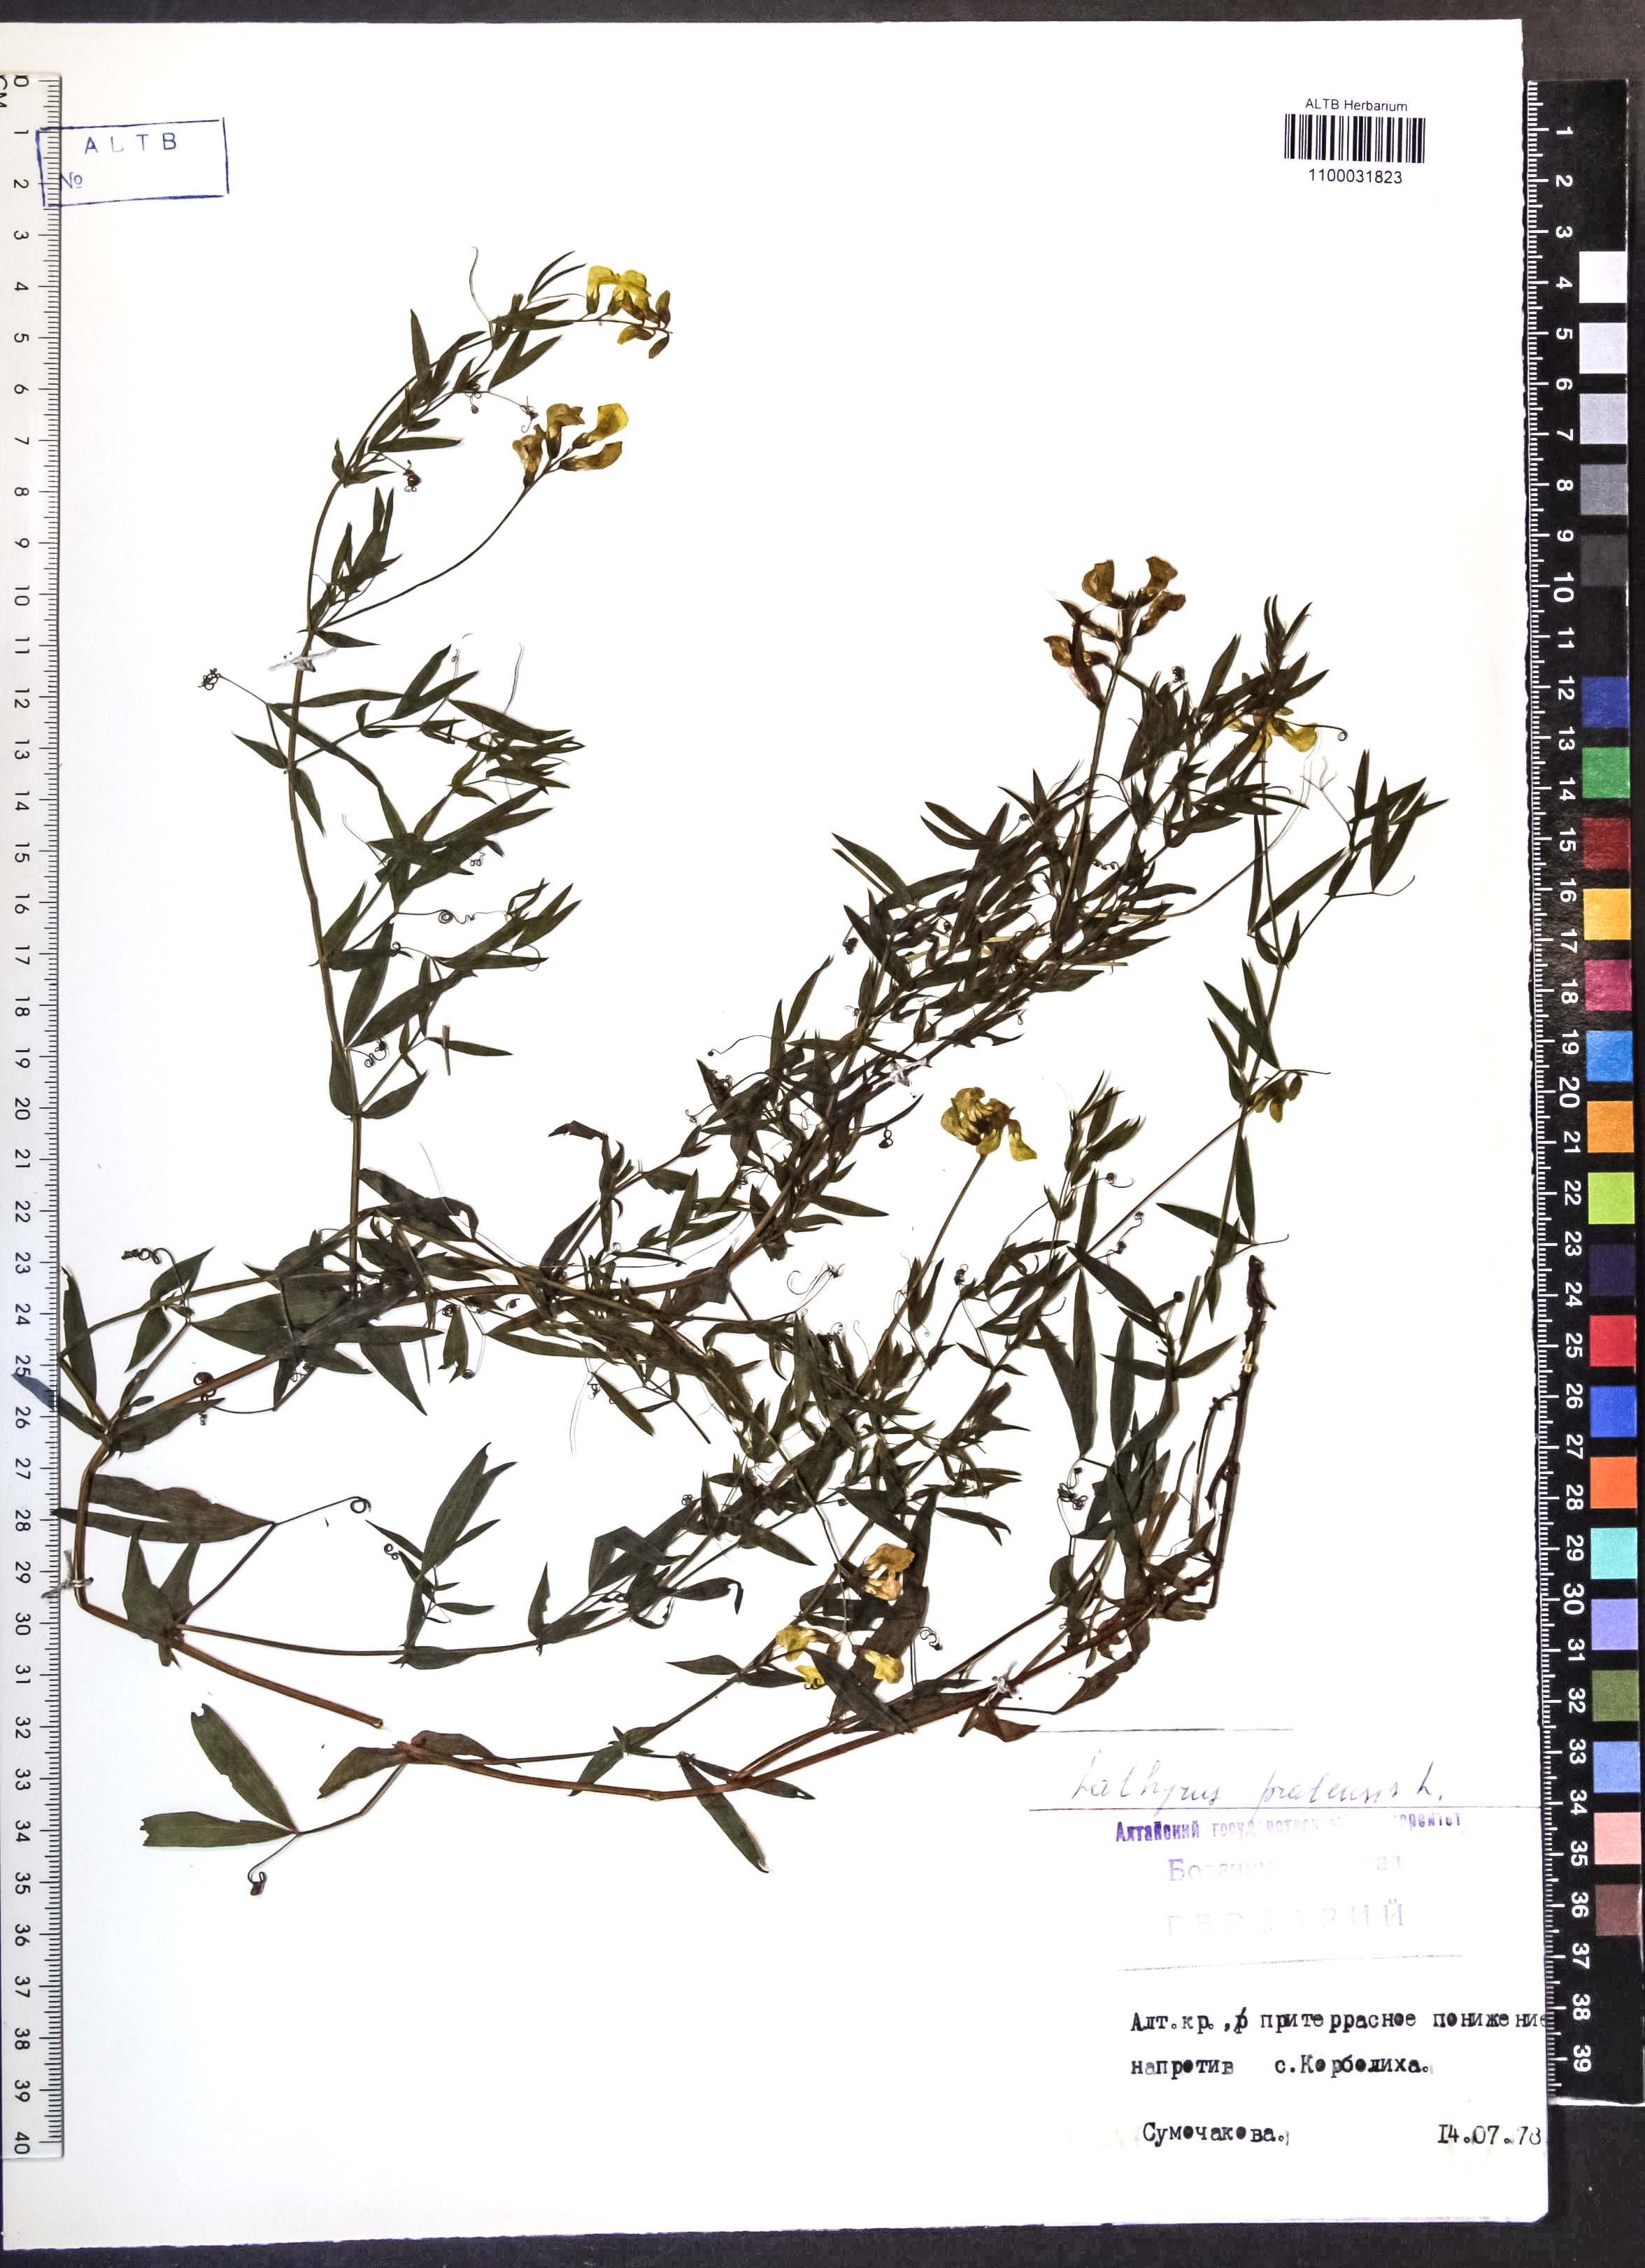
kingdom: Plantae
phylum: Tracheophyta
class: Magnoliopsida
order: Fabales
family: Fabaceae
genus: Lathyrus
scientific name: Lathyrus pratensis
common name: Meadow vetchling
